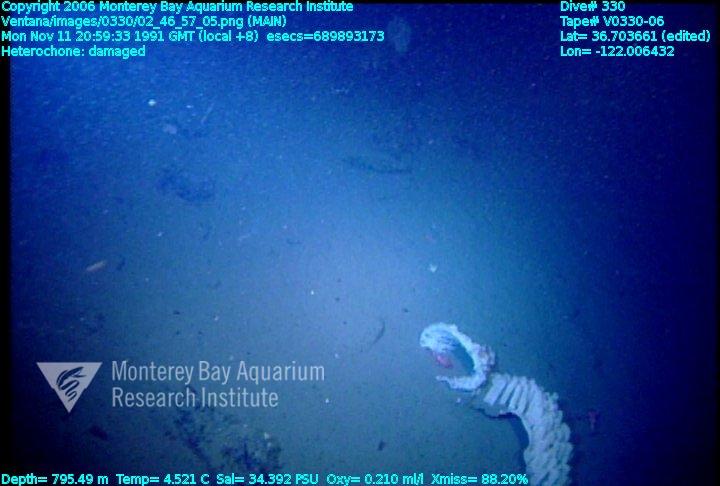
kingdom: Animalia
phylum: Porifera
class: Hexactinellida
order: Sceptrulophora
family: Aphrocallistidae
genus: Heterochone
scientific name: Heterochone
